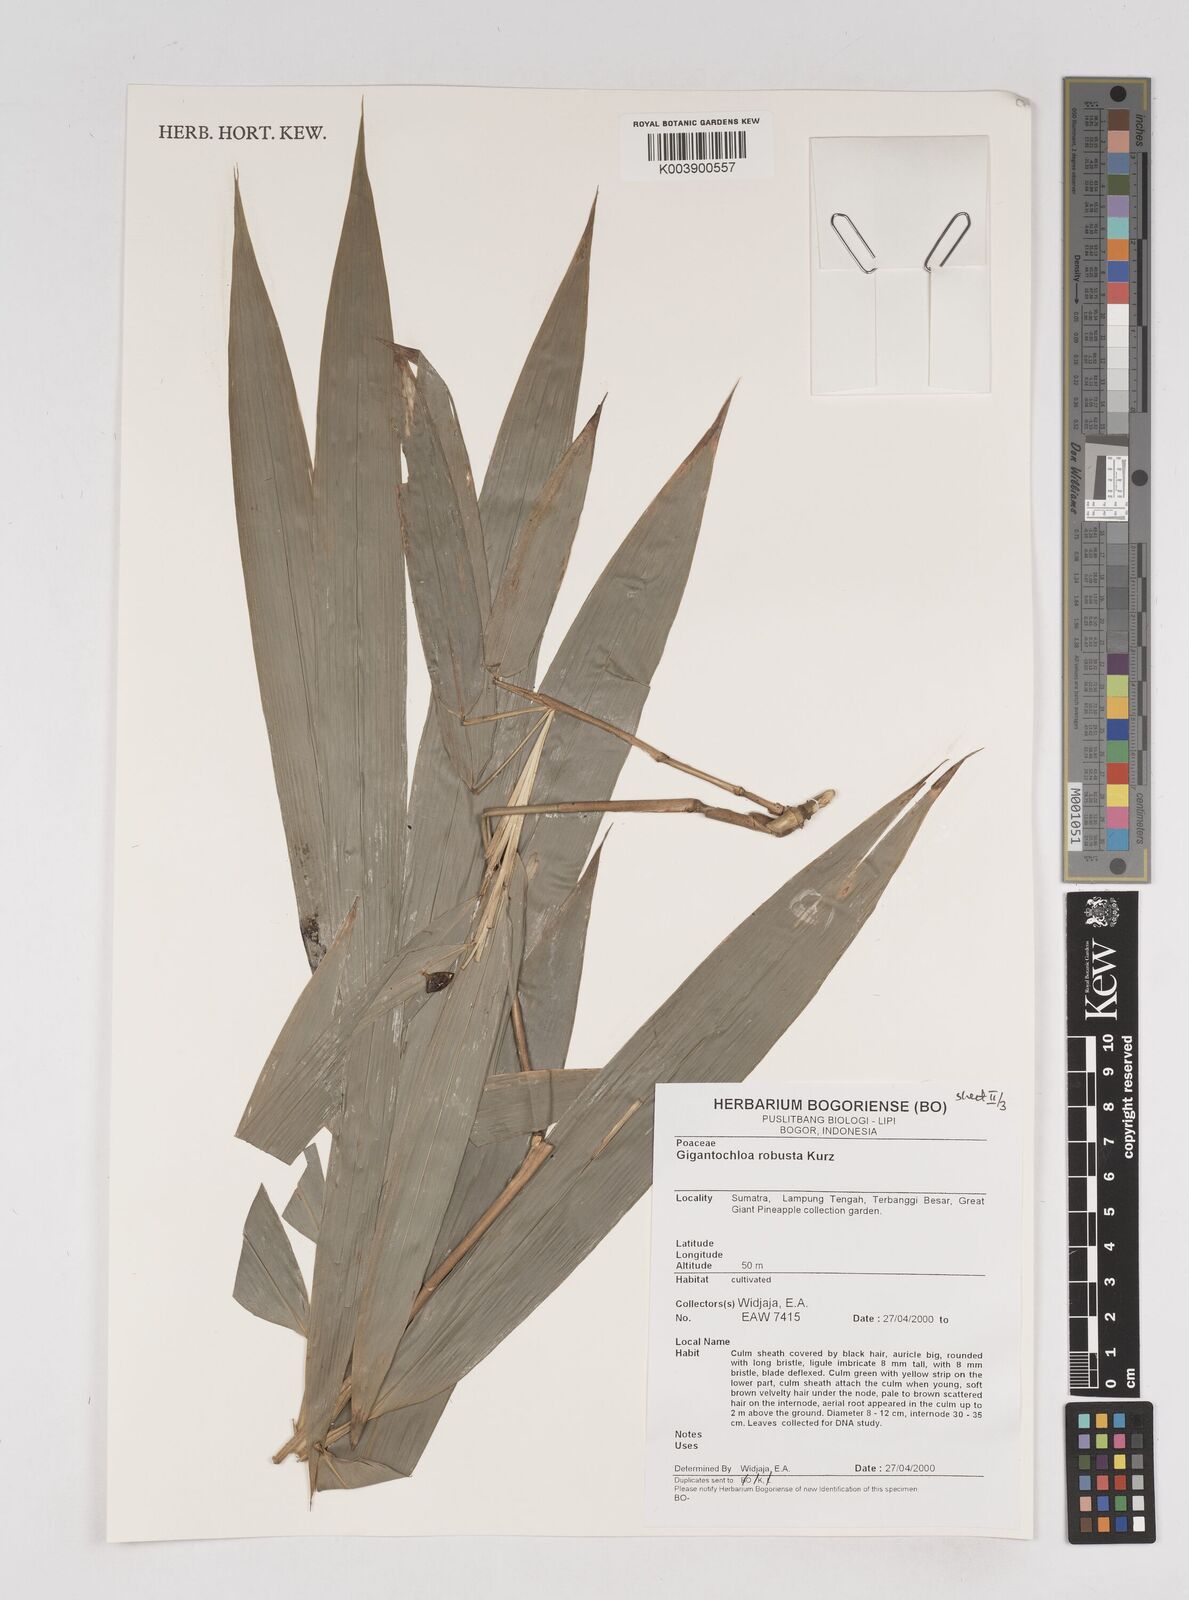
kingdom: Plantae
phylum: Tracheophyta
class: Liliopsida
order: Poales
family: Poaceae
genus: Gigantochloa
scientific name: Gigantochloa robusta
